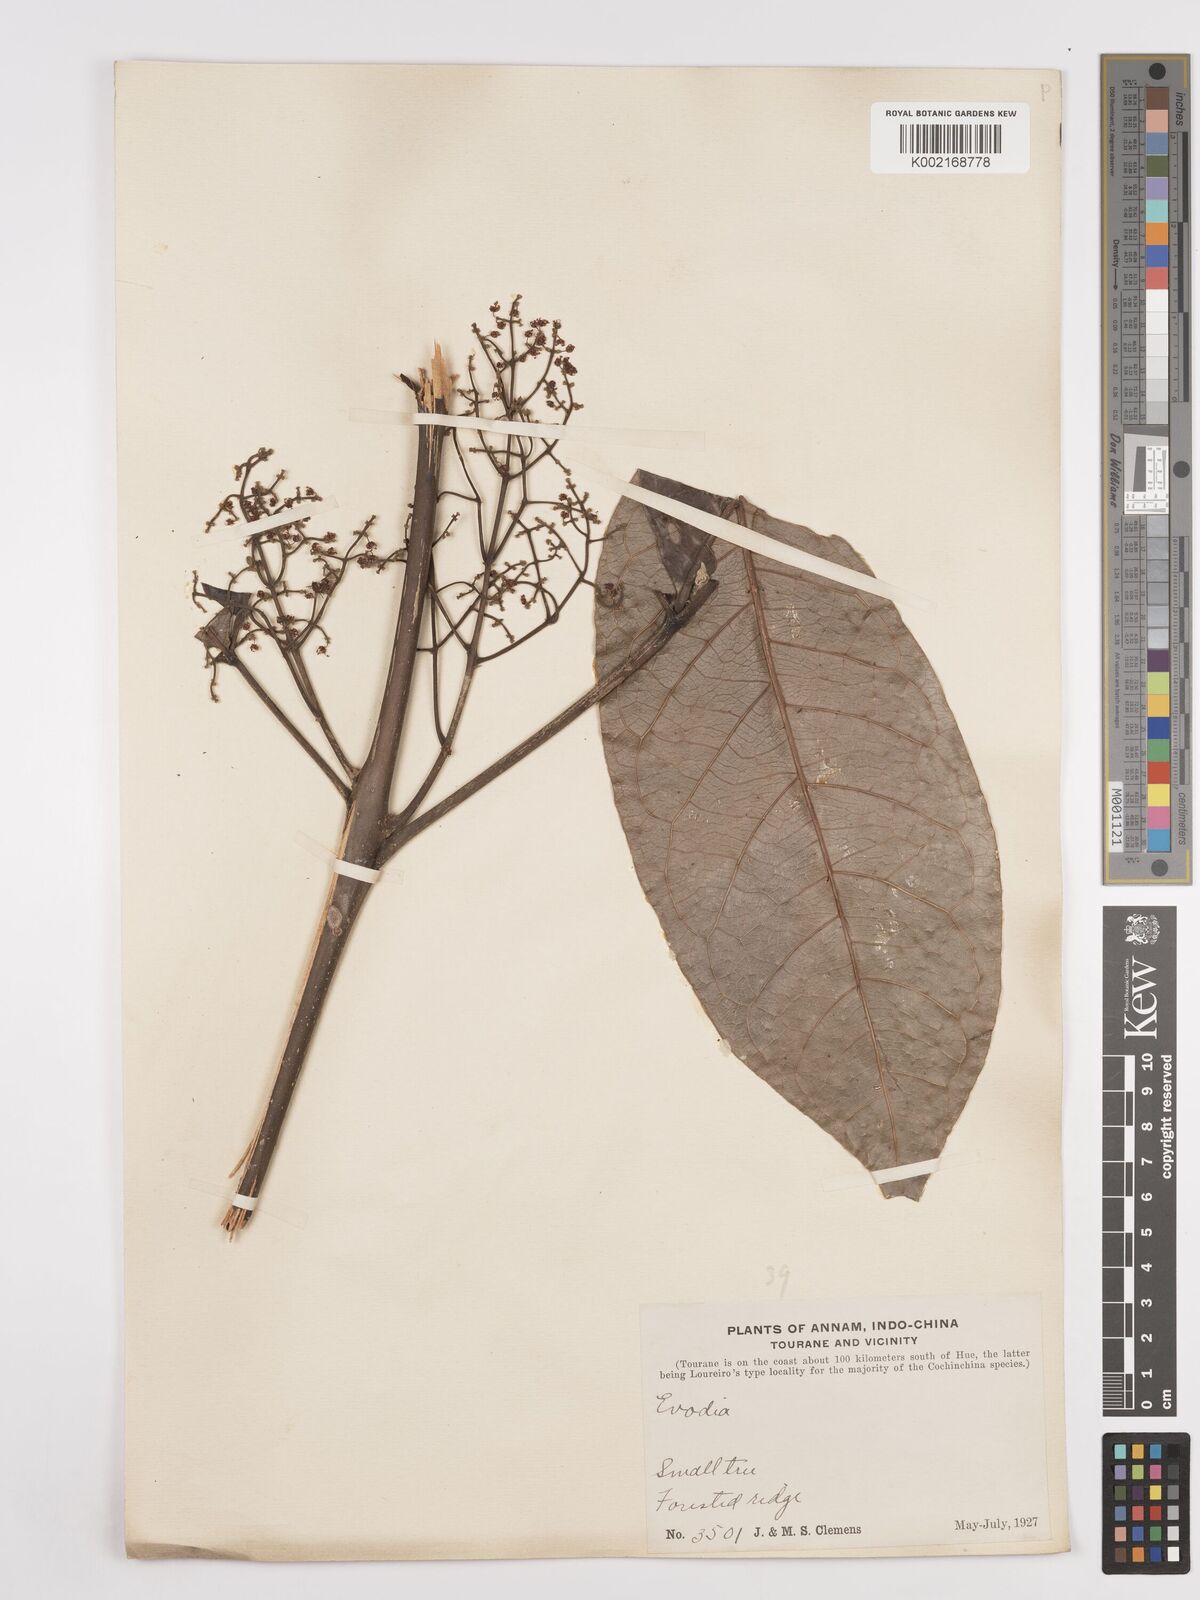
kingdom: Plantae
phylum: Tracheophyta
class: Magnoliopsida
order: Sapindales
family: Rutaceae
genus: Euodia
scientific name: Euodia
